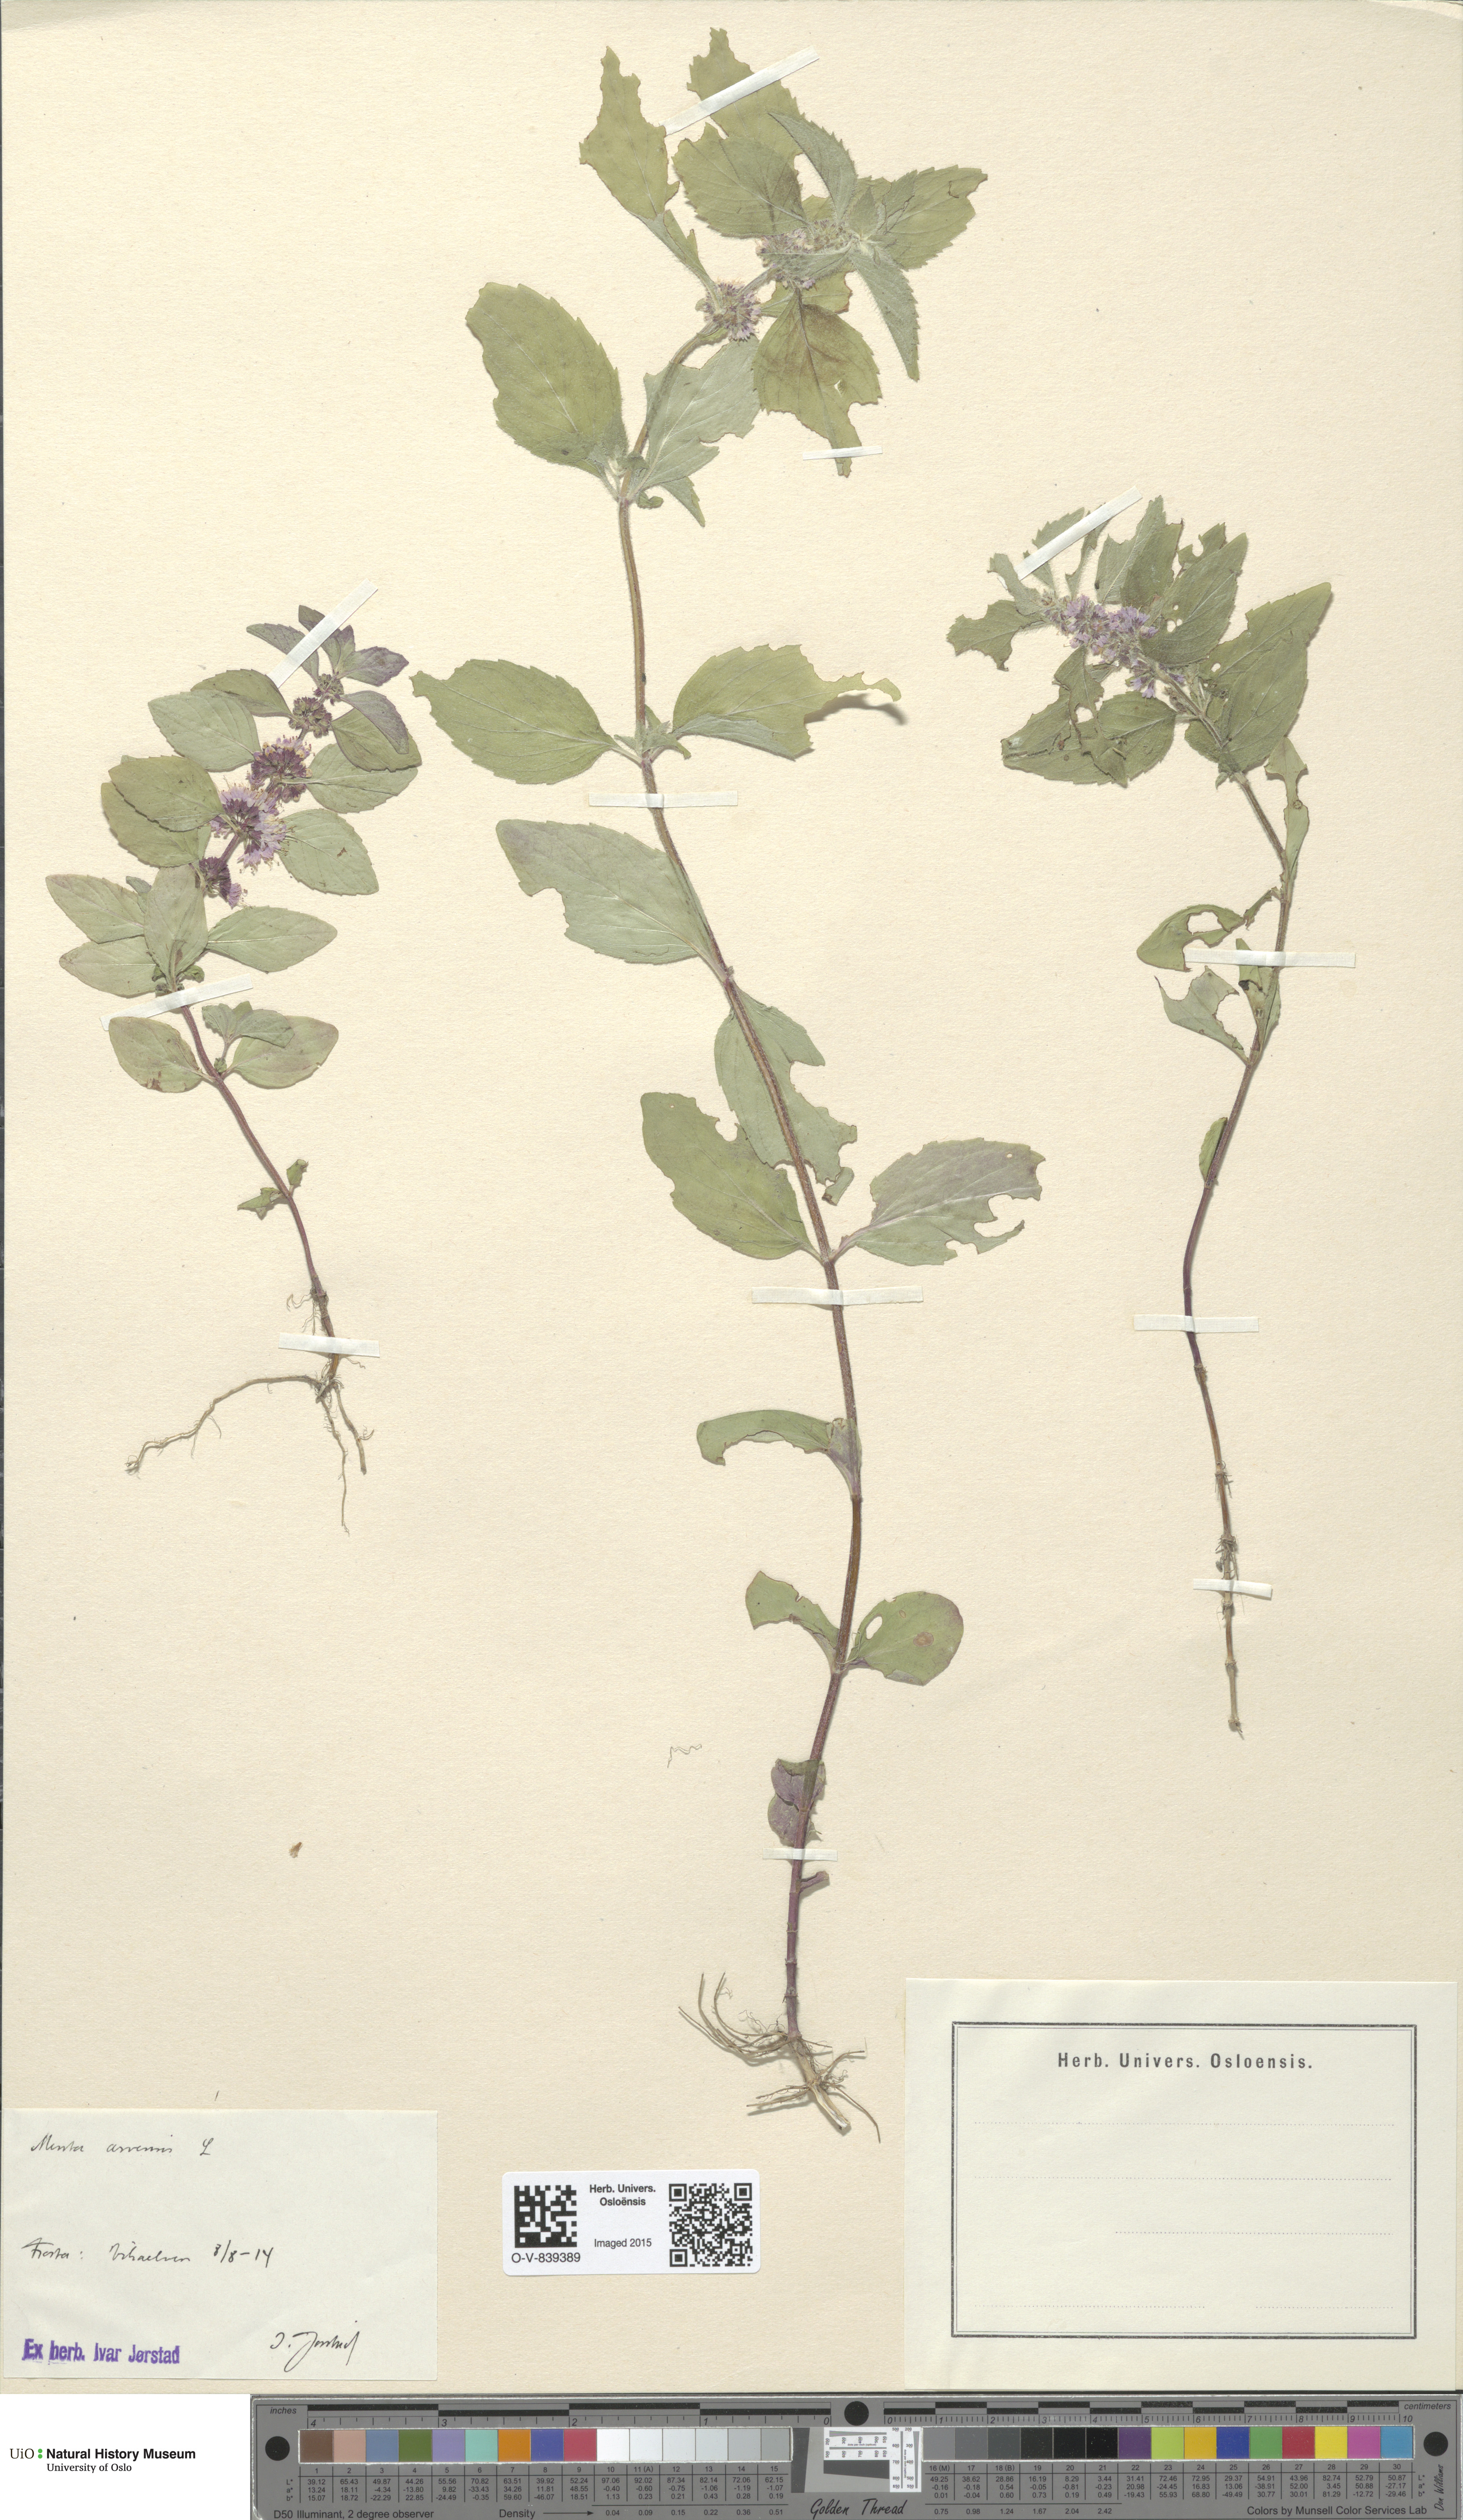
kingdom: Plantae
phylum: Tracheophyta
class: Magnoliopsida
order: Lamiales
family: Lamiaceae
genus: Mentha
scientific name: Mentha arvensis
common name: Corn mint
